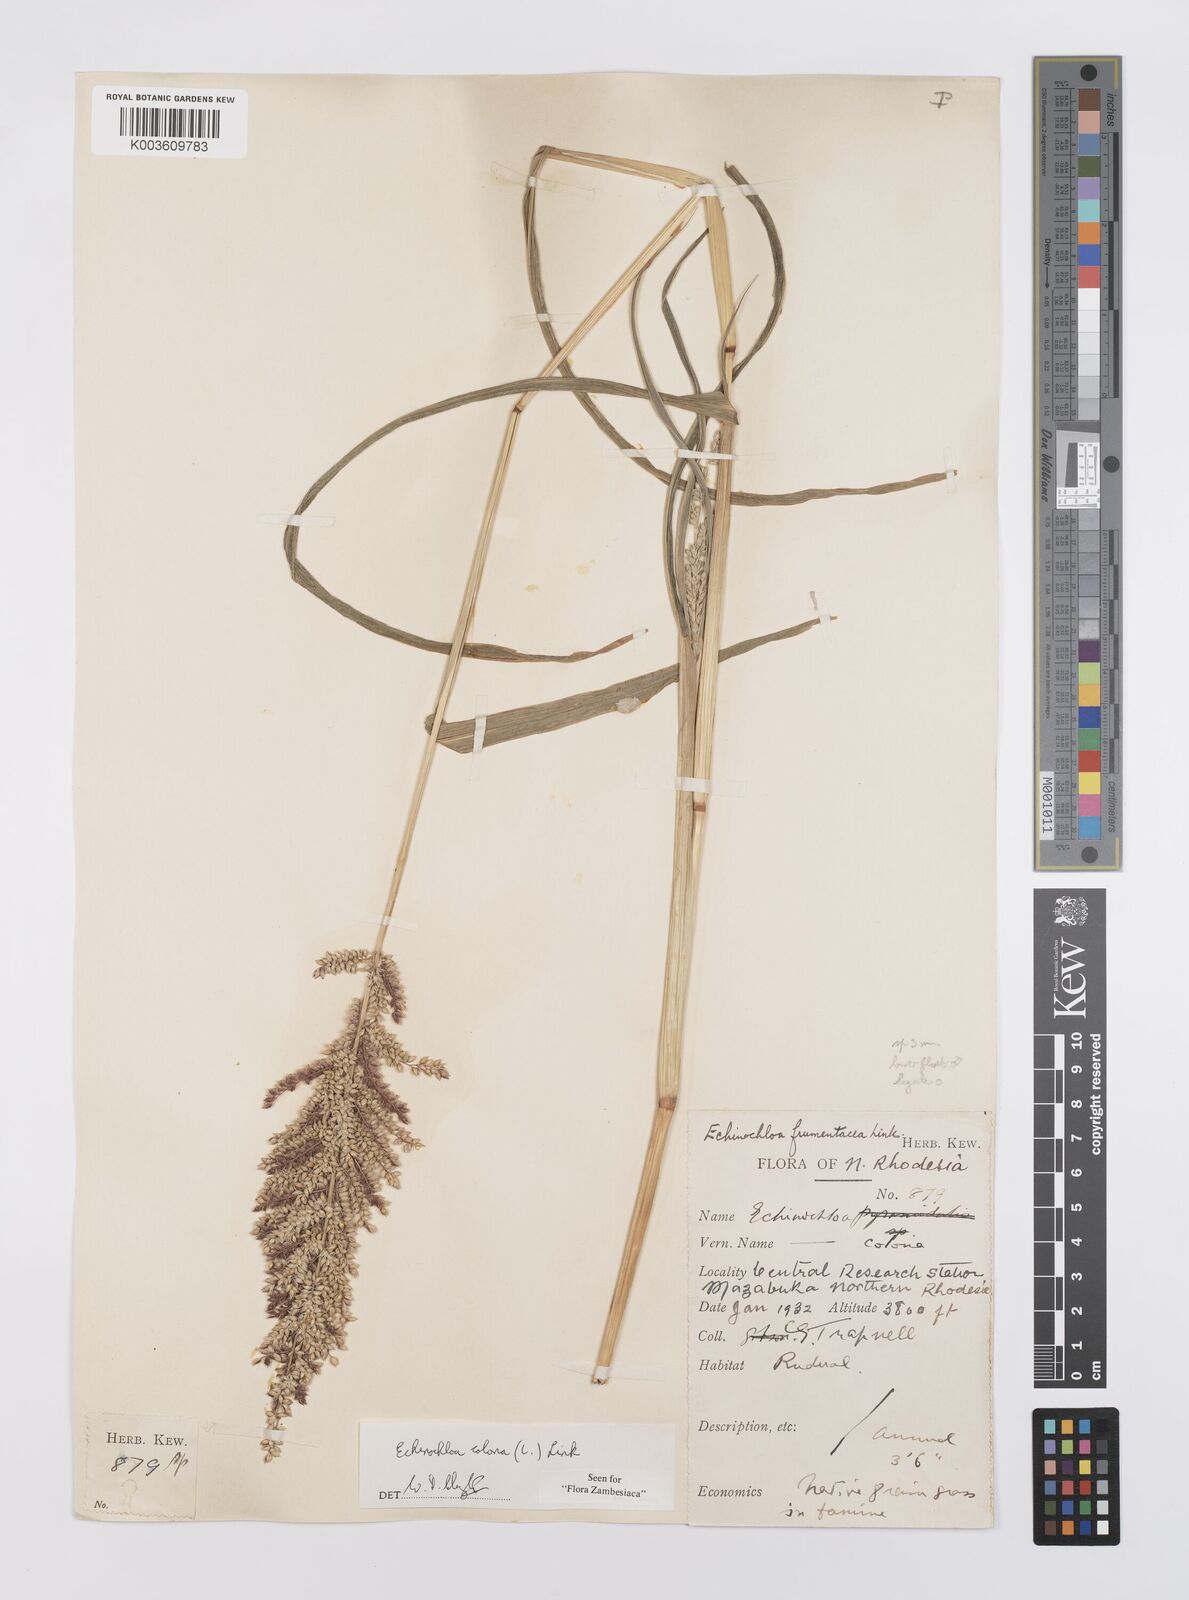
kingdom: Plantae
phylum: Tracheophyta
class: Liliopsida
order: Poales
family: Poaceae
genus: Echinochloa
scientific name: Echinochloa colonum
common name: Jungle rice
